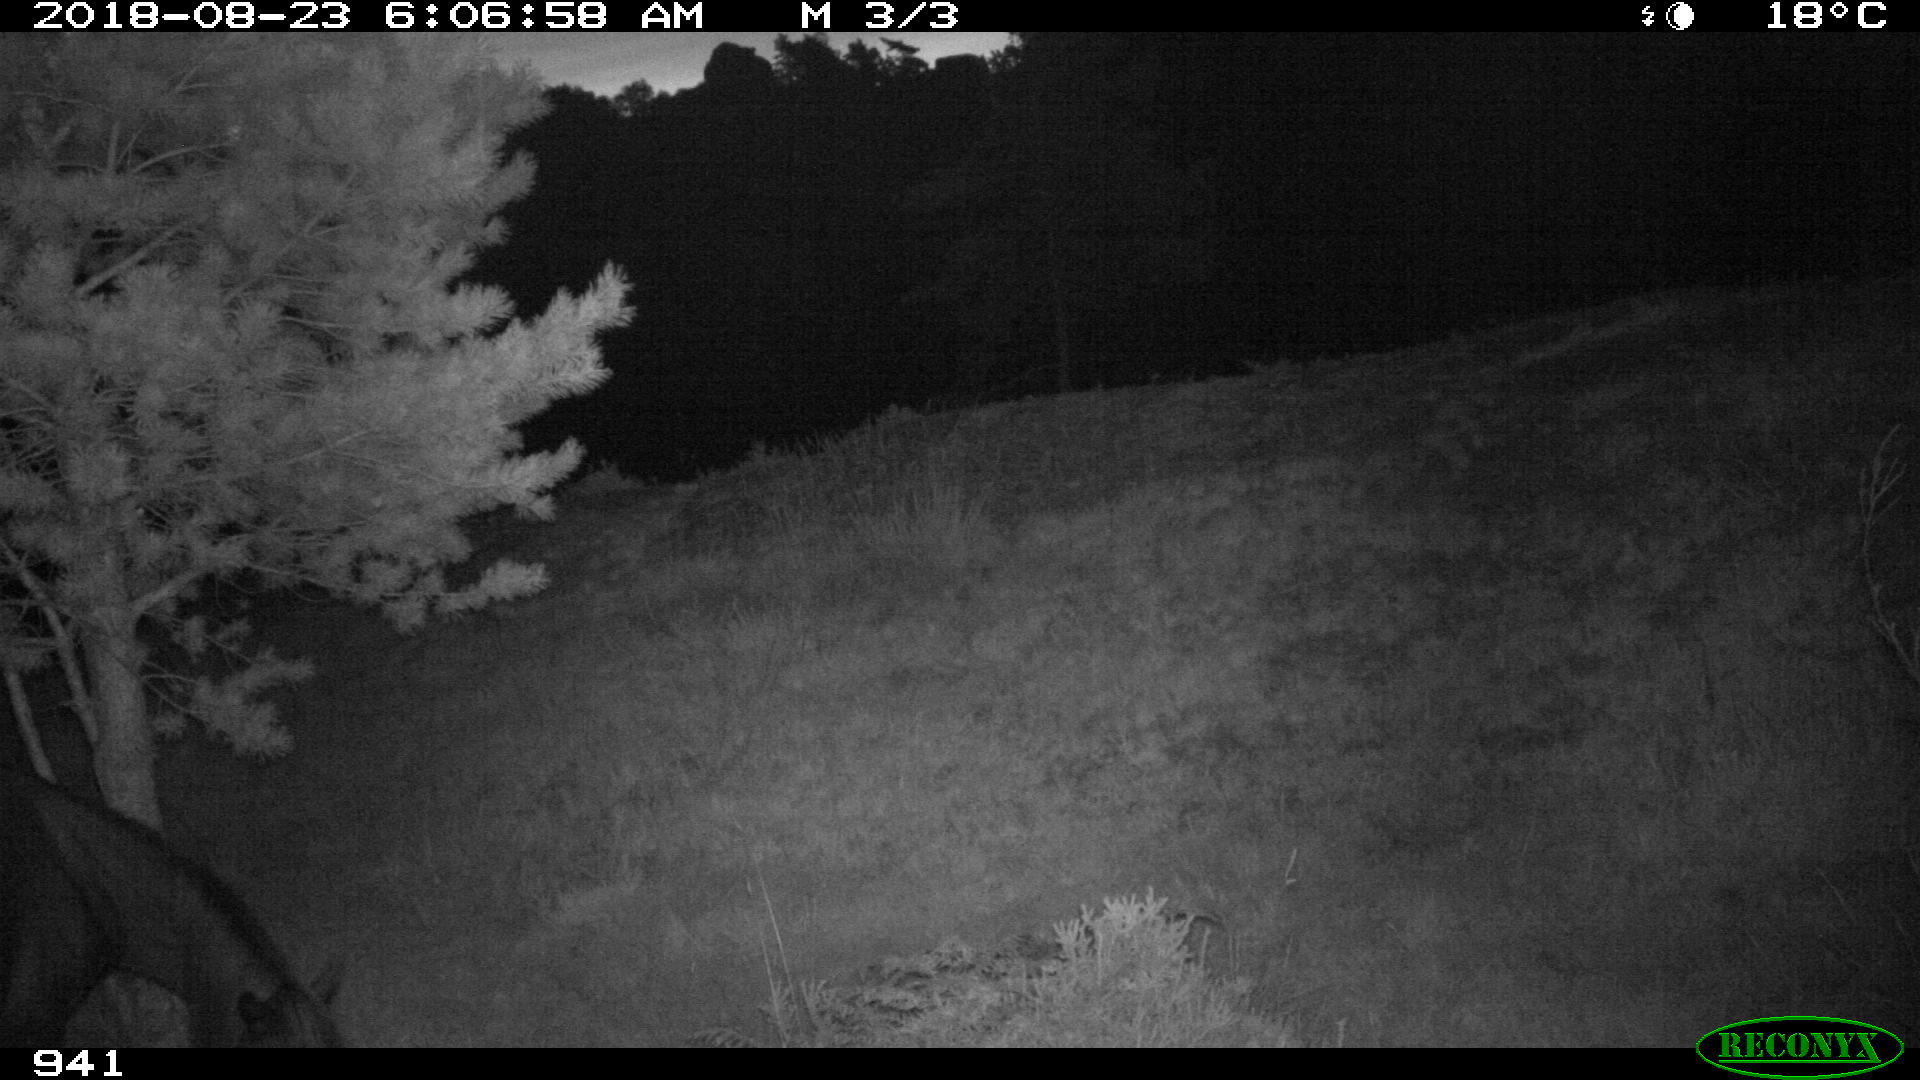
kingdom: Animalia
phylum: Chordata
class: Mammalia
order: Perissodactyla
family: Equidae
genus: Equus
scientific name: Equus caballus
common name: Horse
